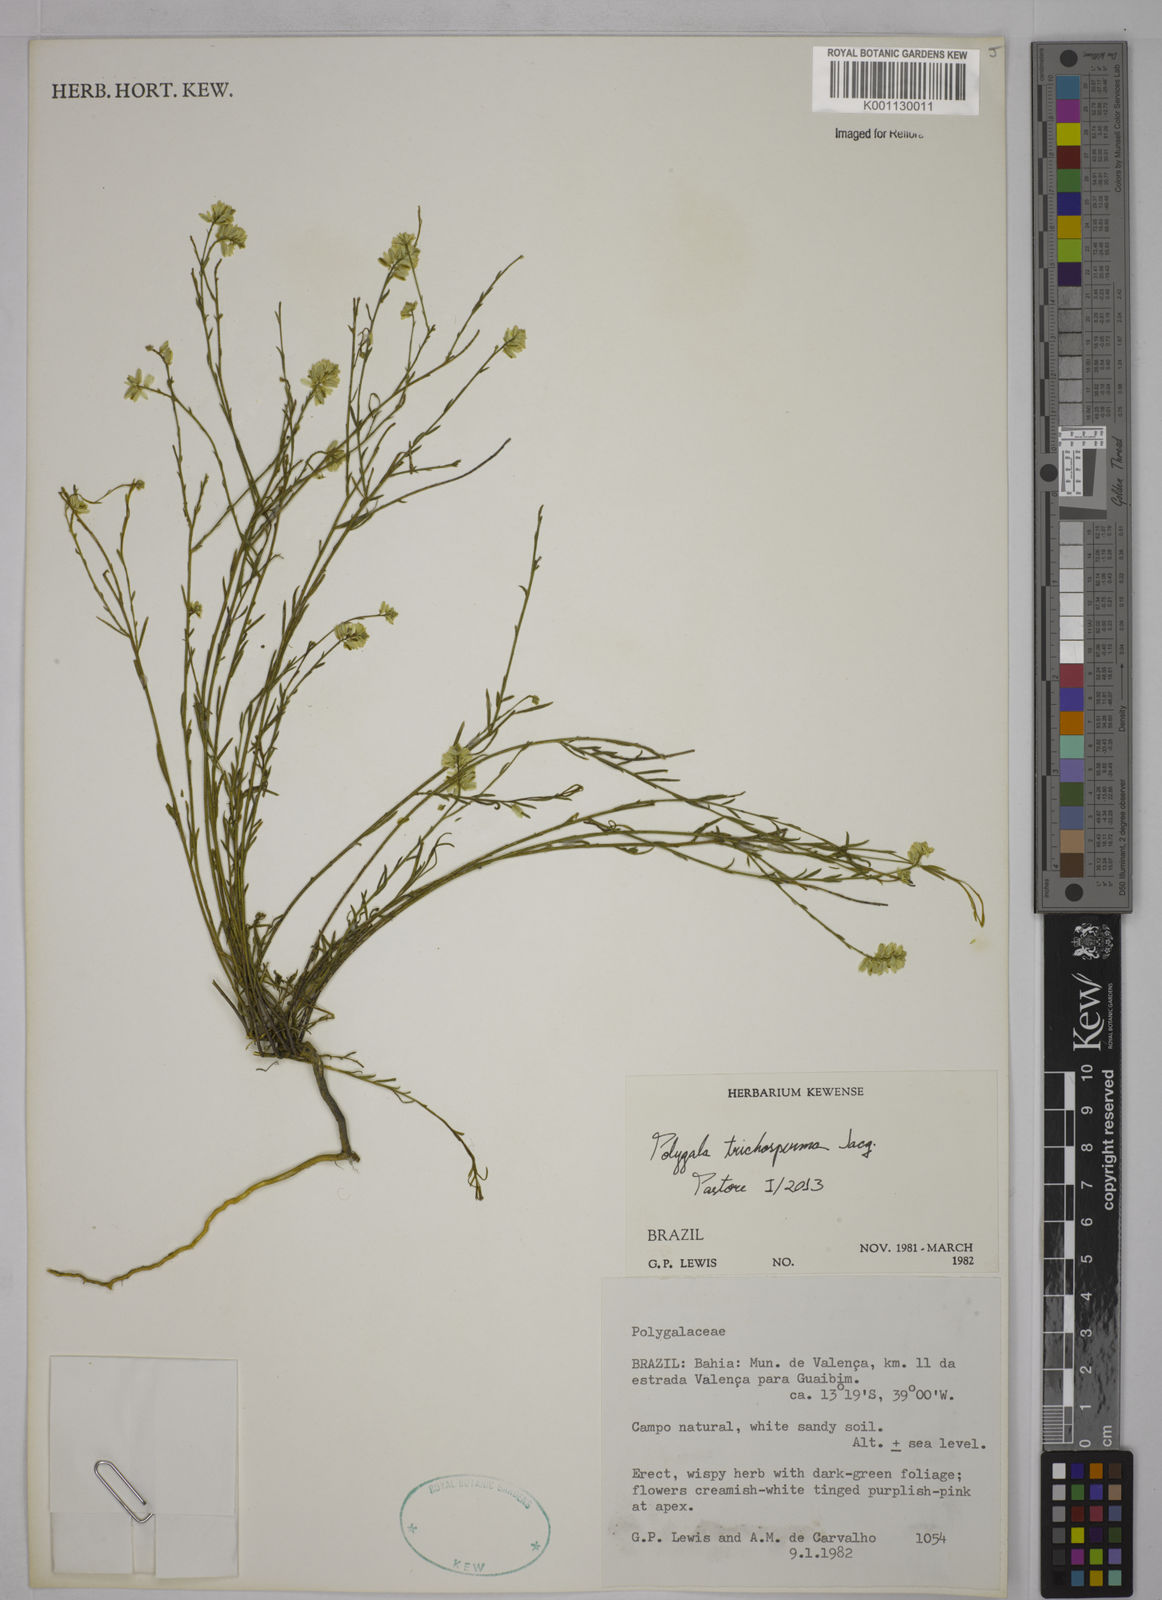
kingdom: Plantae
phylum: Tracheophyta
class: Magnoliopsida
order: Fabales
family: Polygalaceae
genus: Polygala
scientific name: Polygala trichosperma
